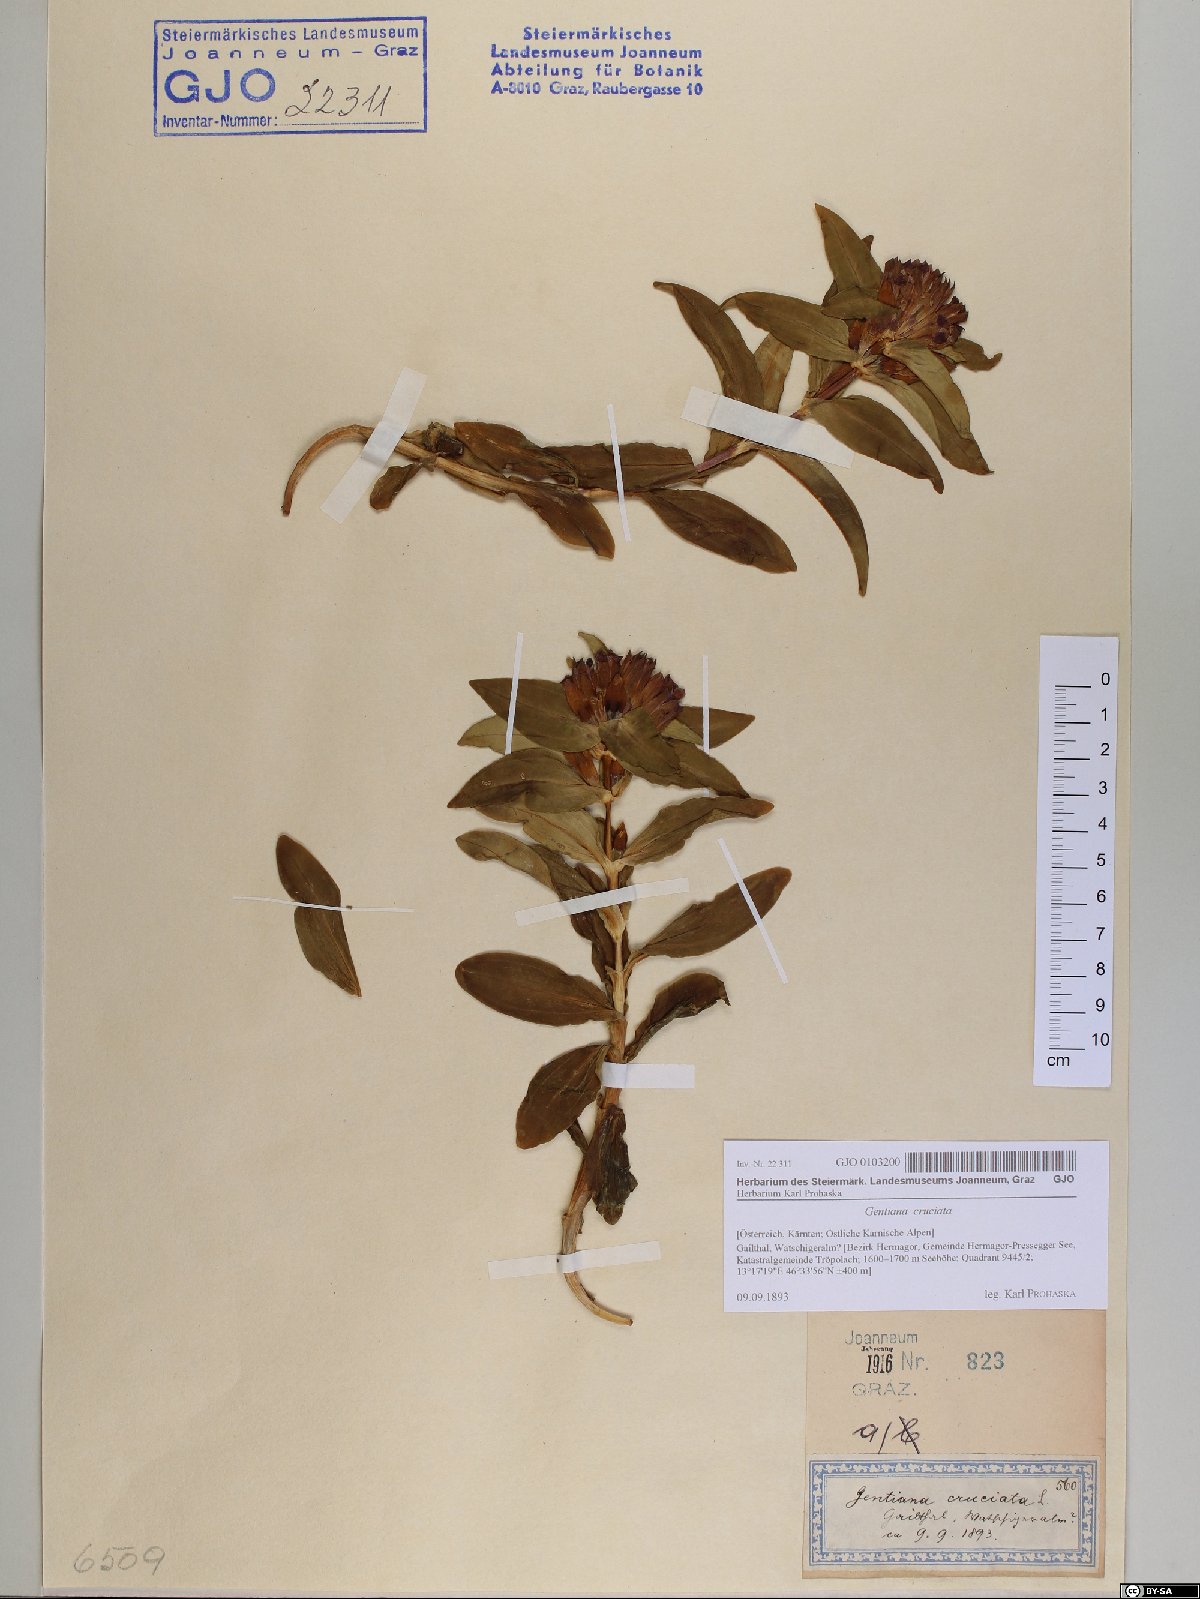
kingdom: Plantae
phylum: Tracheophyta
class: Magnoliopsida
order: Gentianales
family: Gentianaceae
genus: Gentiana
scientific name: Gentiana cruciata
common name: Cross gentian
